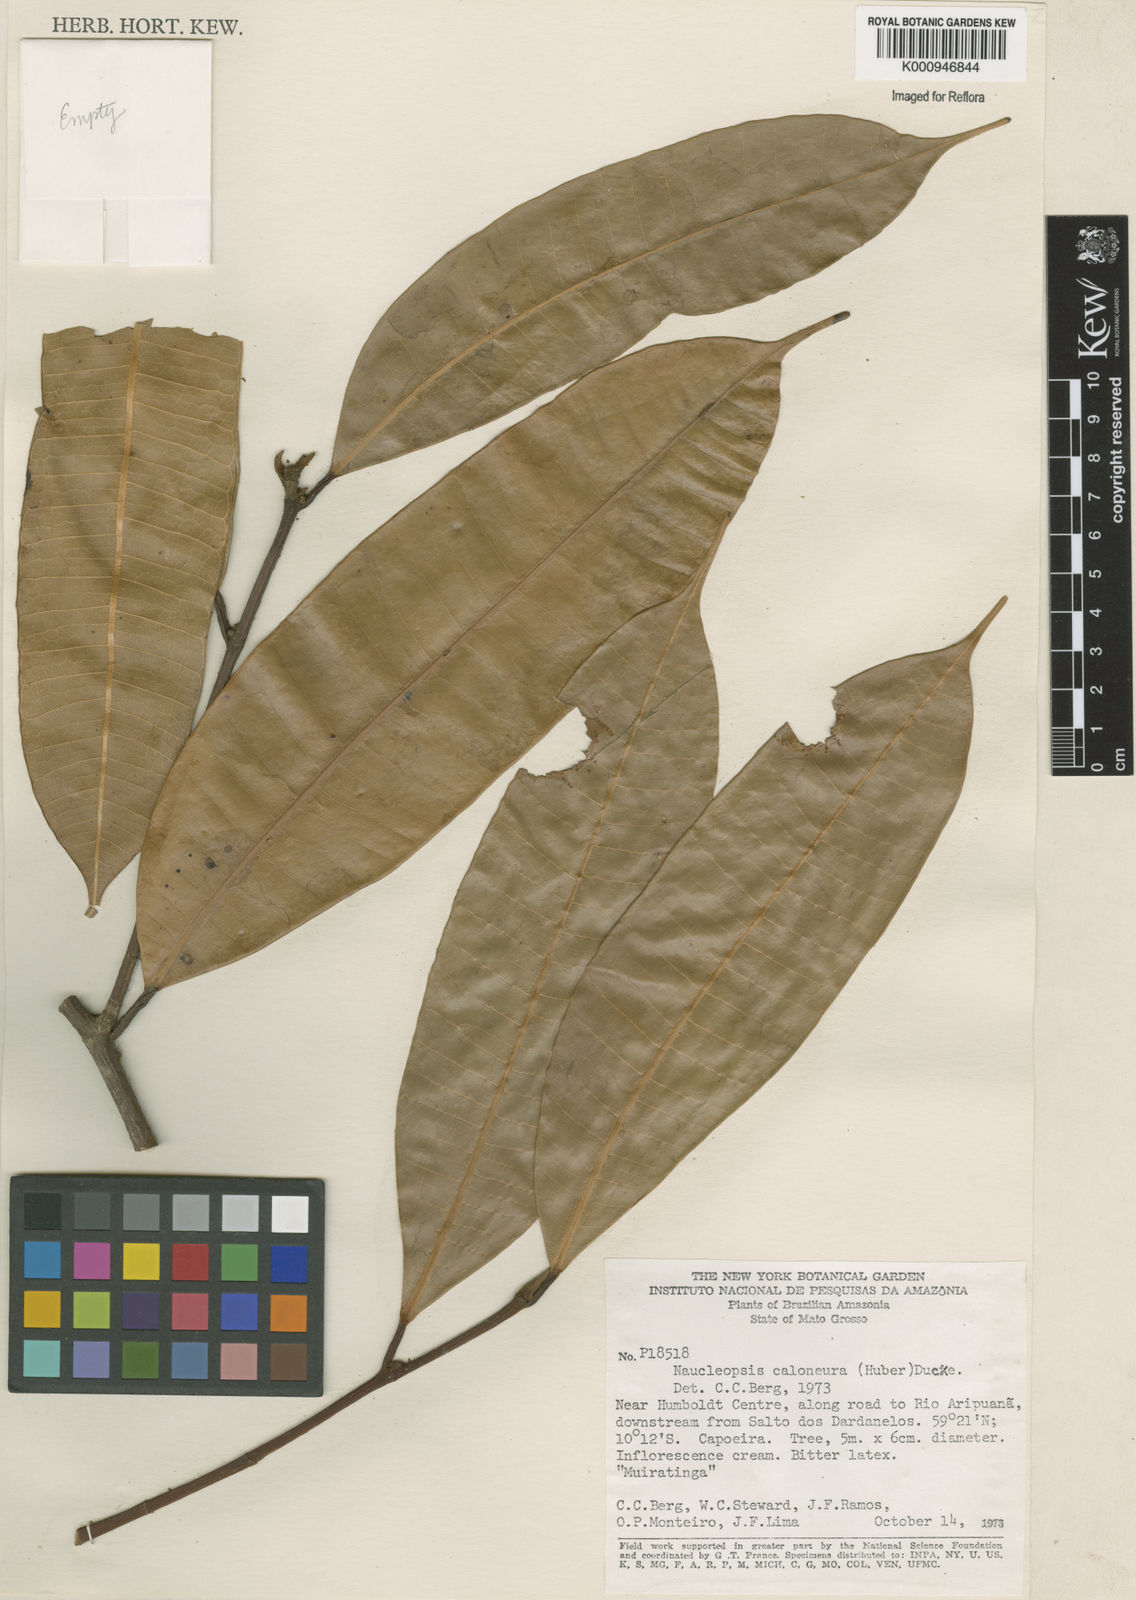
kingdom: Plantae
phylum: Tracheophyta
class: Magnoliopsida
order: Rosales
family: Moraceae
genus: Naucleopsis
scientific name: Naucleopsis caloneura
